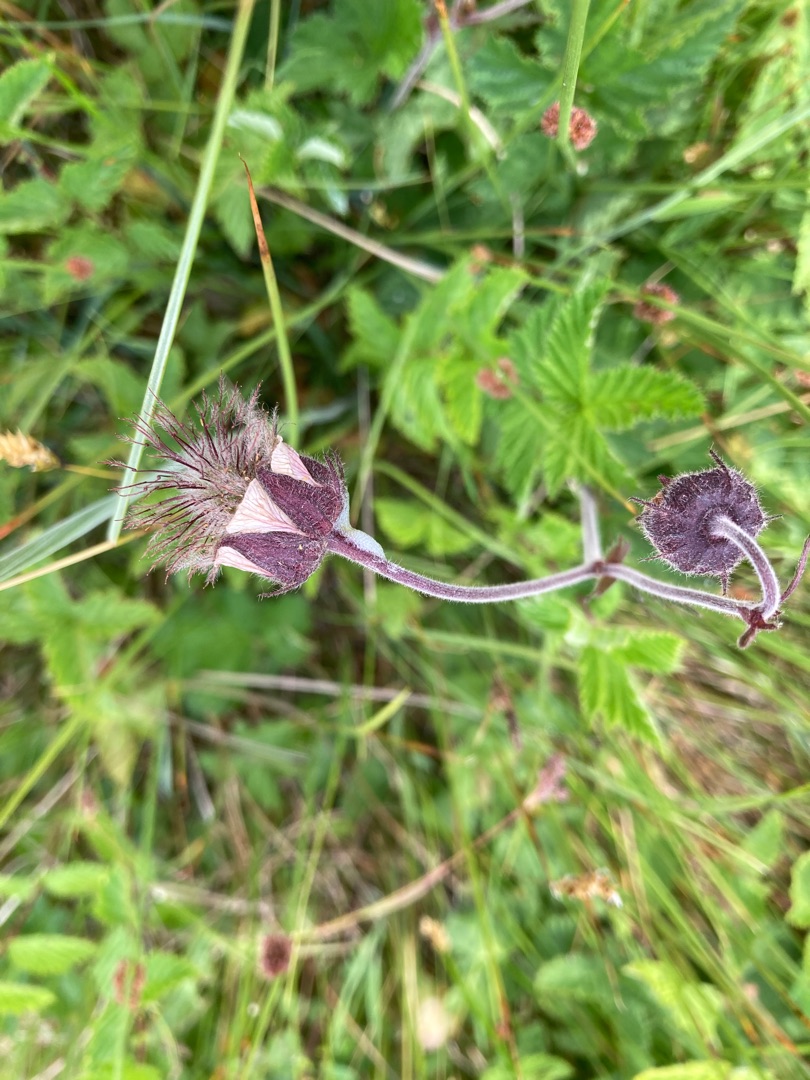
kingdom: Plantae
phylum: Tracheophyta
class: Magnoliopsida
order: Rosales
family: Rosaceae
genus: Geum
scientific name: Geum rivale
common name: Eng-nellikerod
